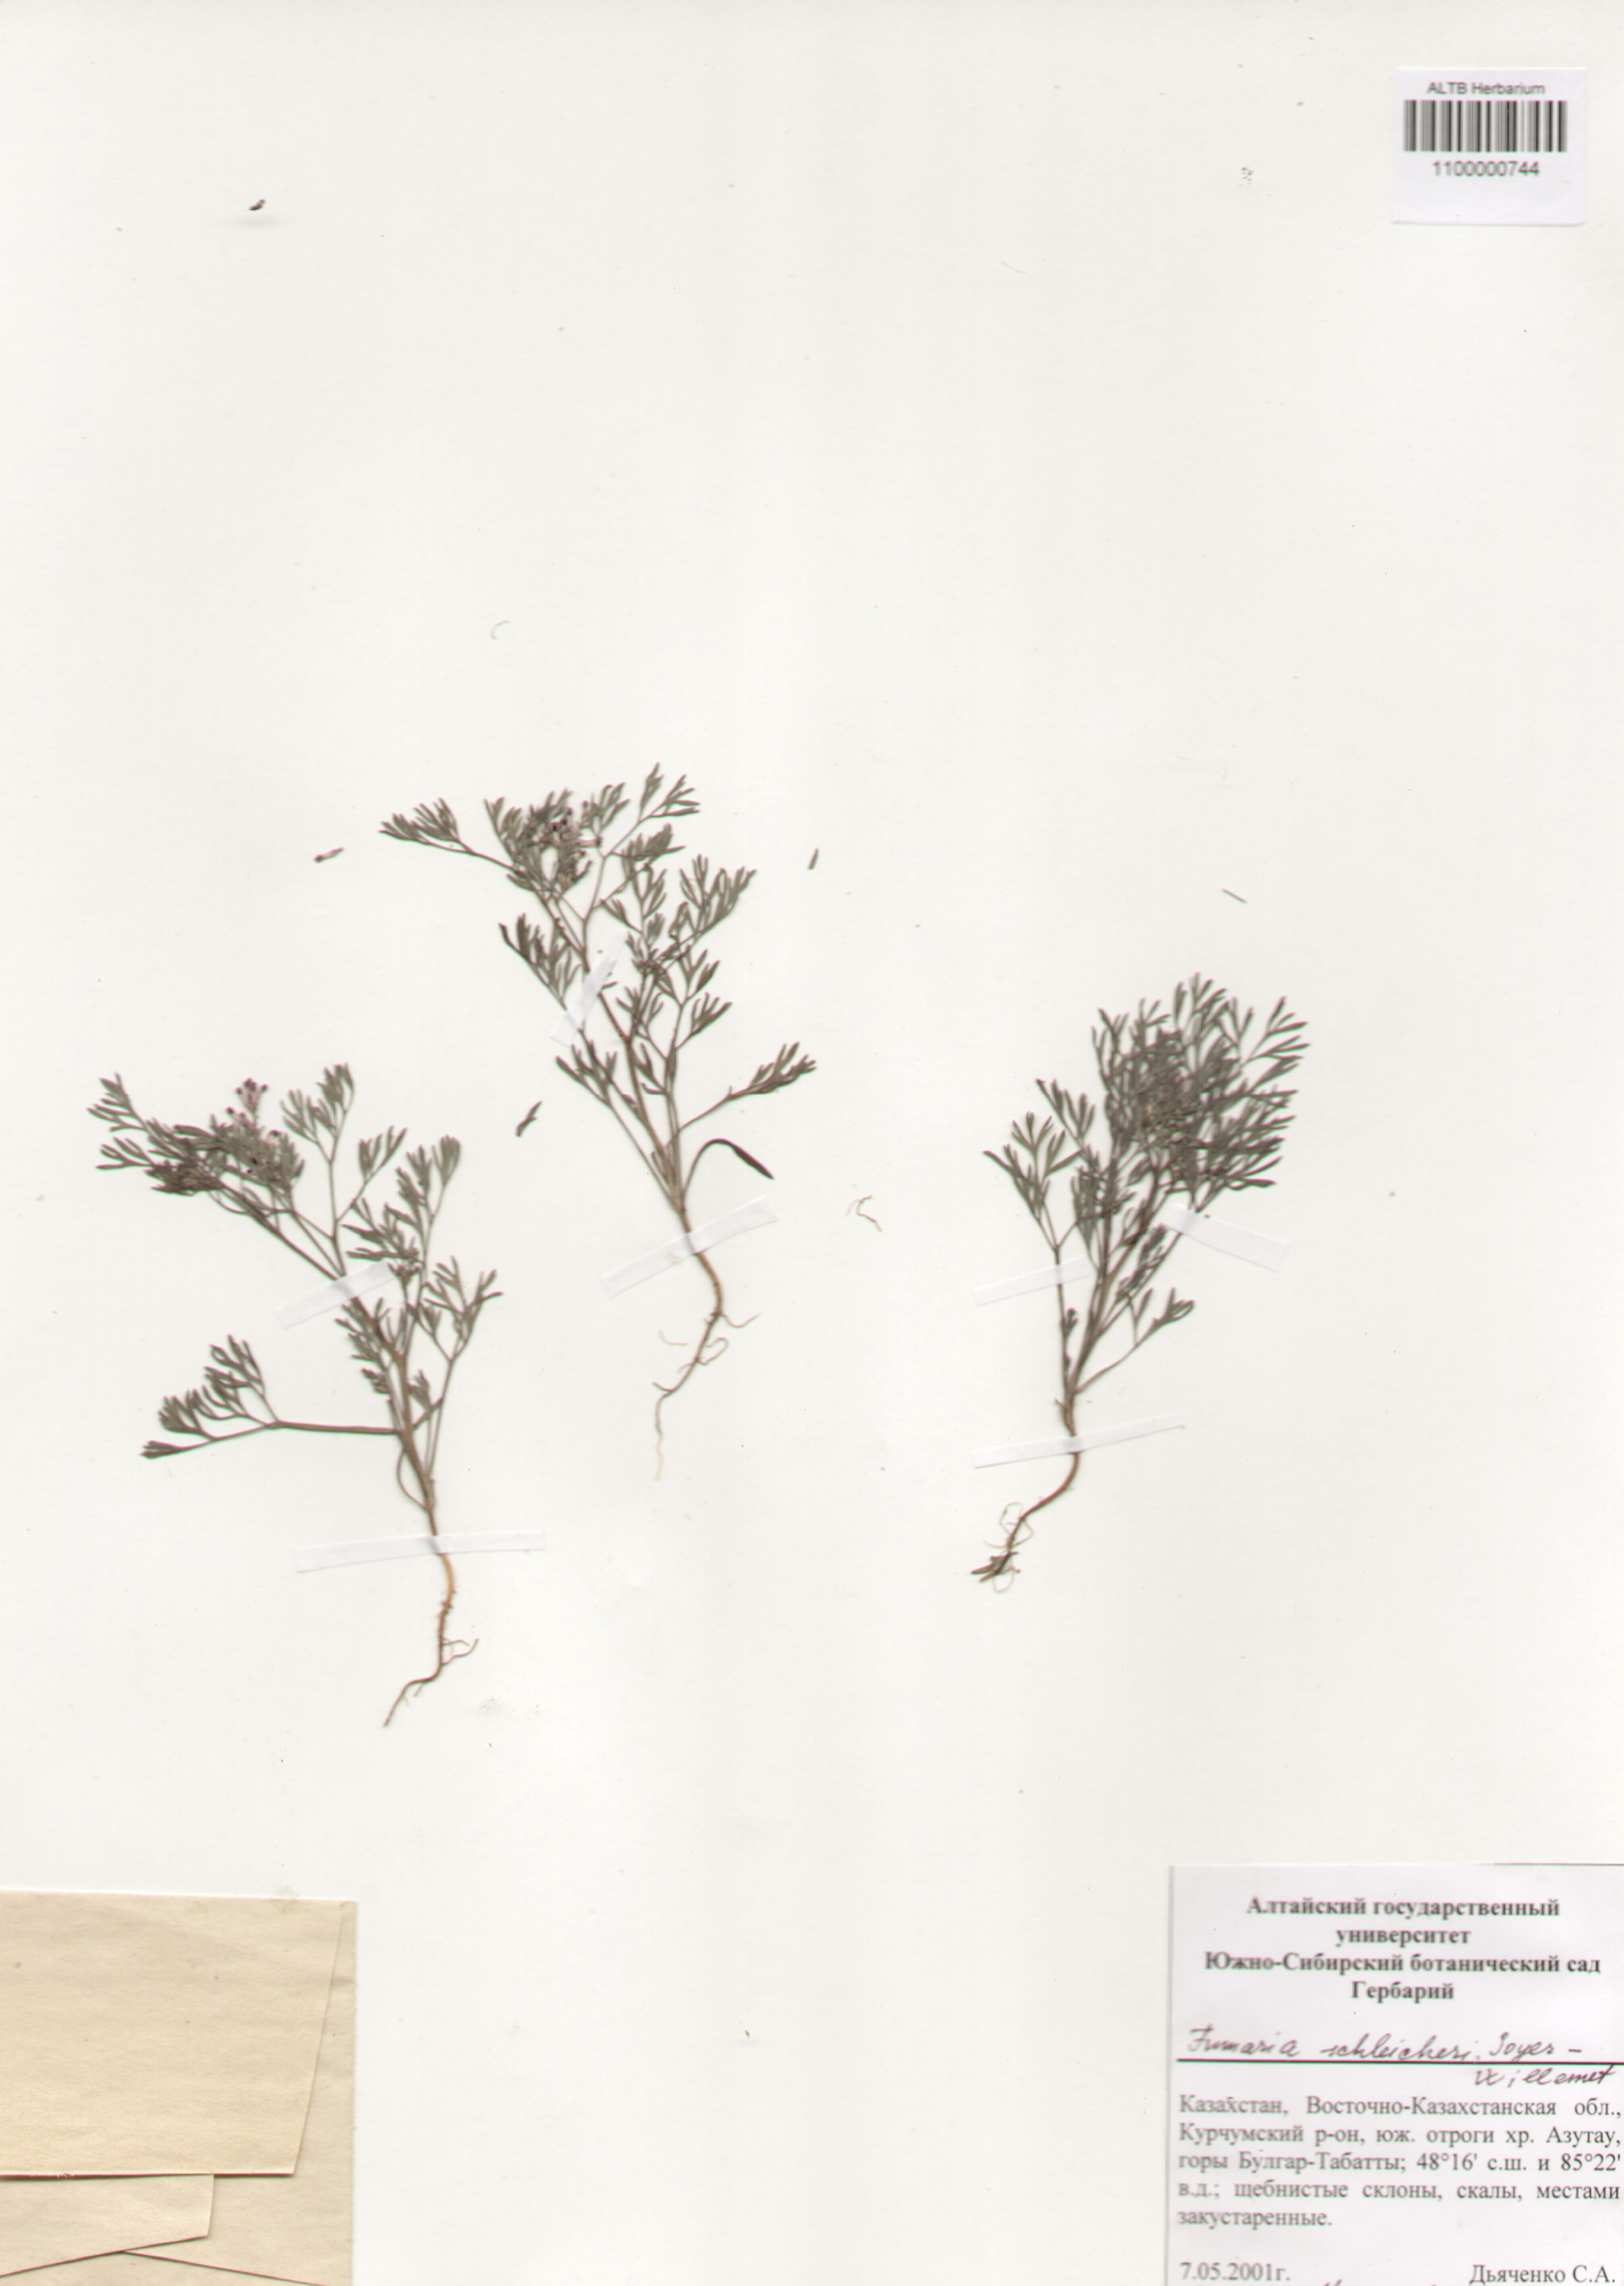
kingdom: Plantae
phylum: Tracheophyta
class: Magnoliopsida
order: Ranunculales
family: Papaveraceae
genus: Fumaria
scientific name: Fumaria schleicheri
